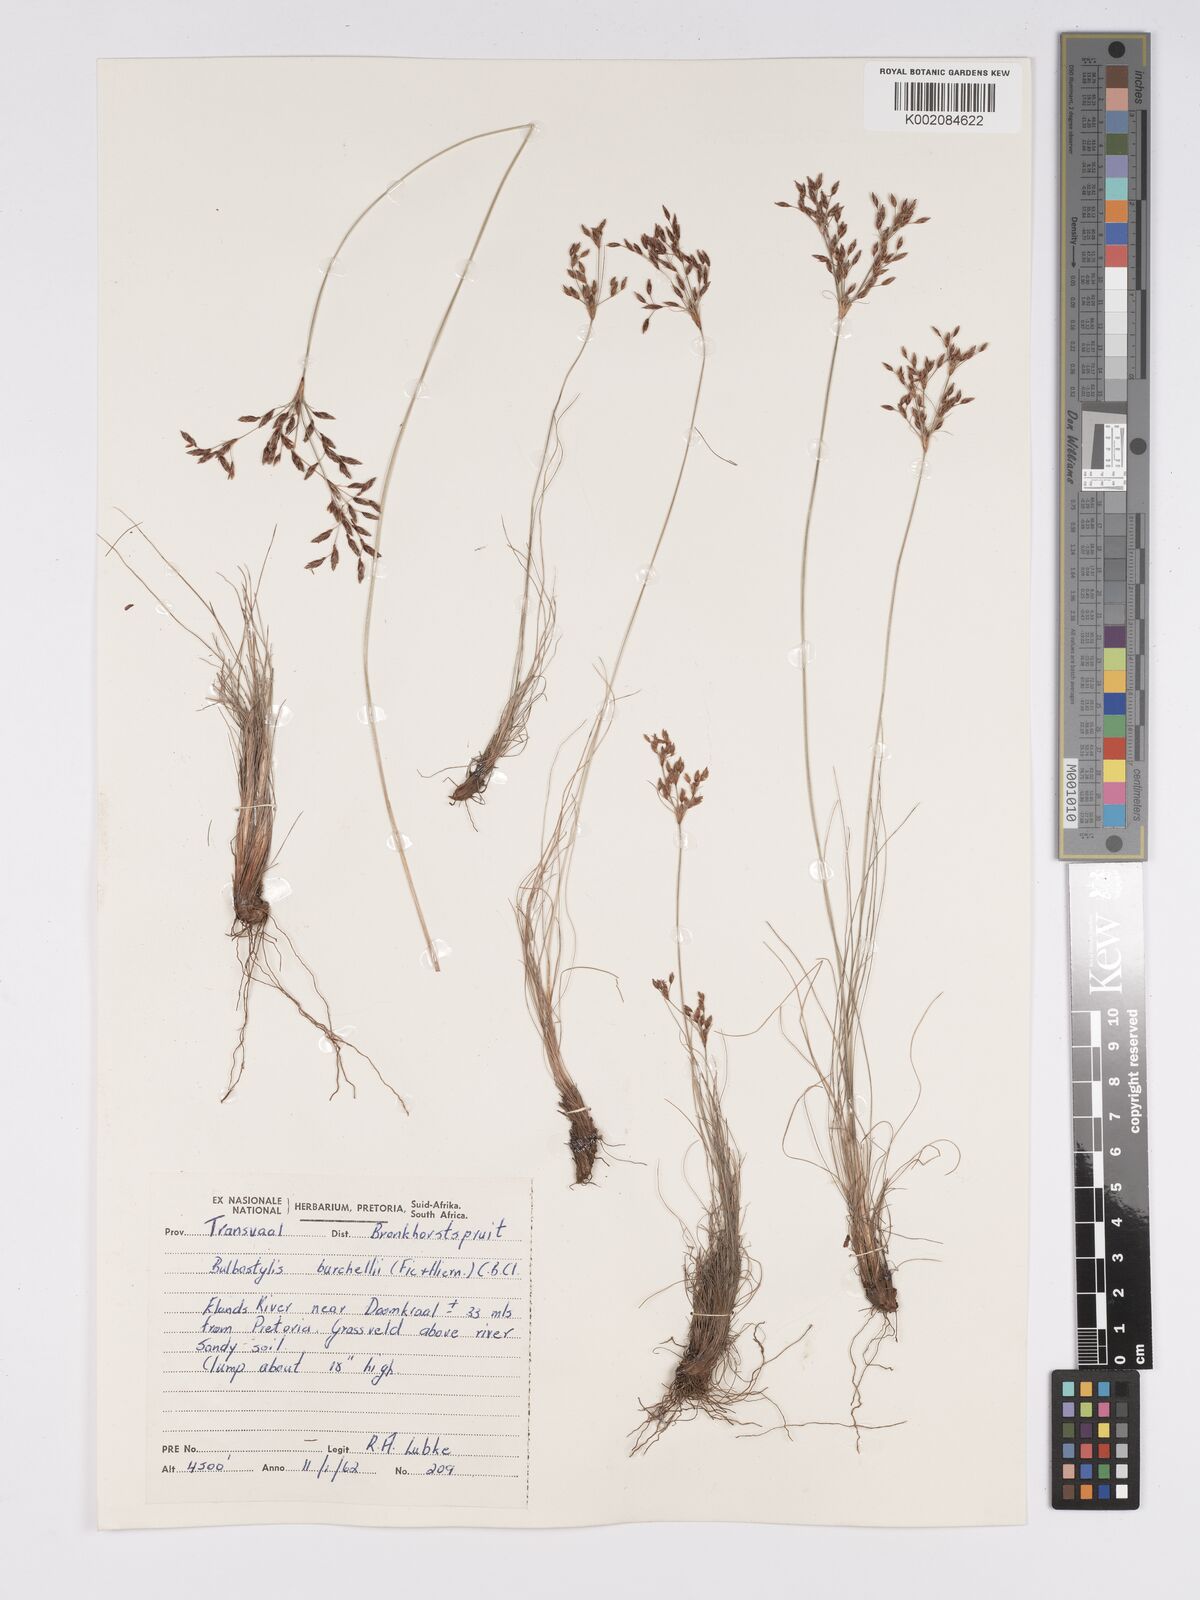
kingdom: Plantae
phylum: Tracheophyta
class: Liliopsida
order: Poales
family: Cyperaceae
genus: Bulbostylis
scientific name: Bulbostylis burchellii
